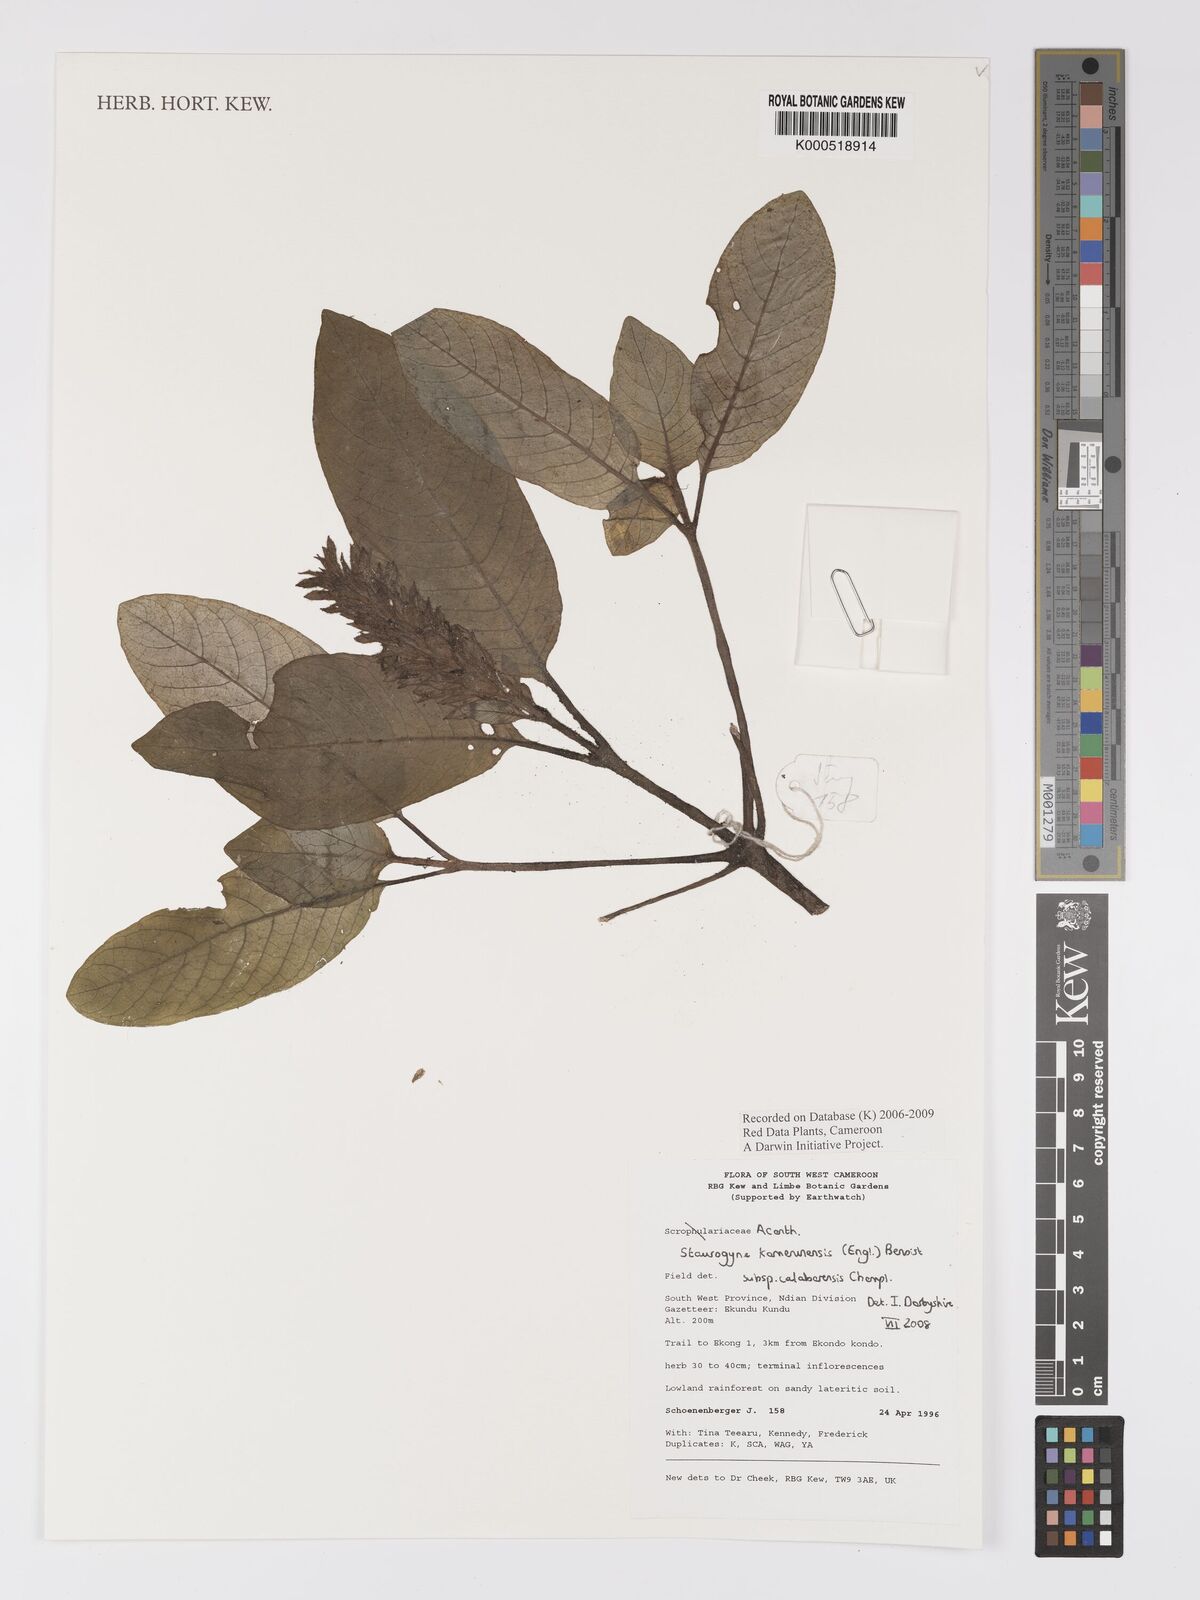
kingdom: Plantae
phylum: Tracheophyta
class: Magnoliopsida
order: Lamiales
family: Acanthaceae
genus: Staurogyne
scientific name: Staurogyne kamerunensis
